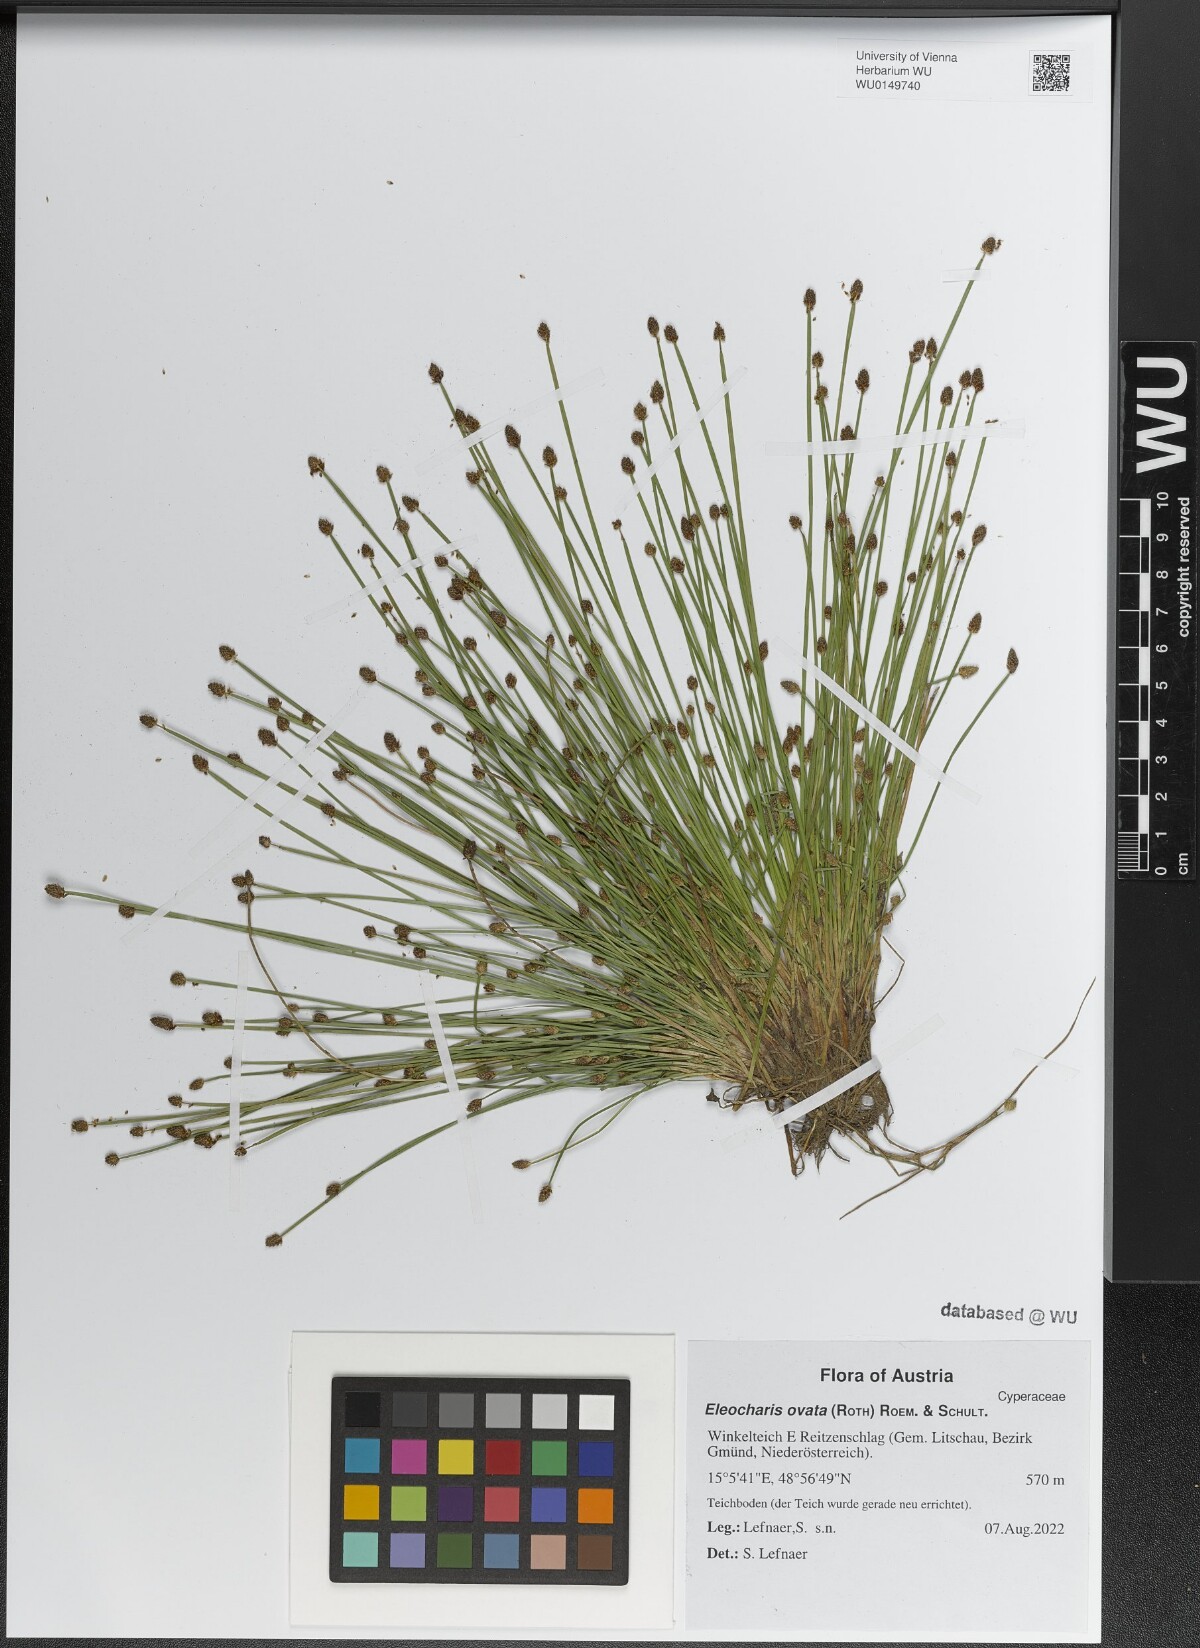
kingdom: Plantae
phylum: Tracheophyta
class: Liliopsida
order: Poales
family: Cyperaceae
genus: Eleocharis
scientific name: Eleocharis ovata
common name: Oval spike-rush
